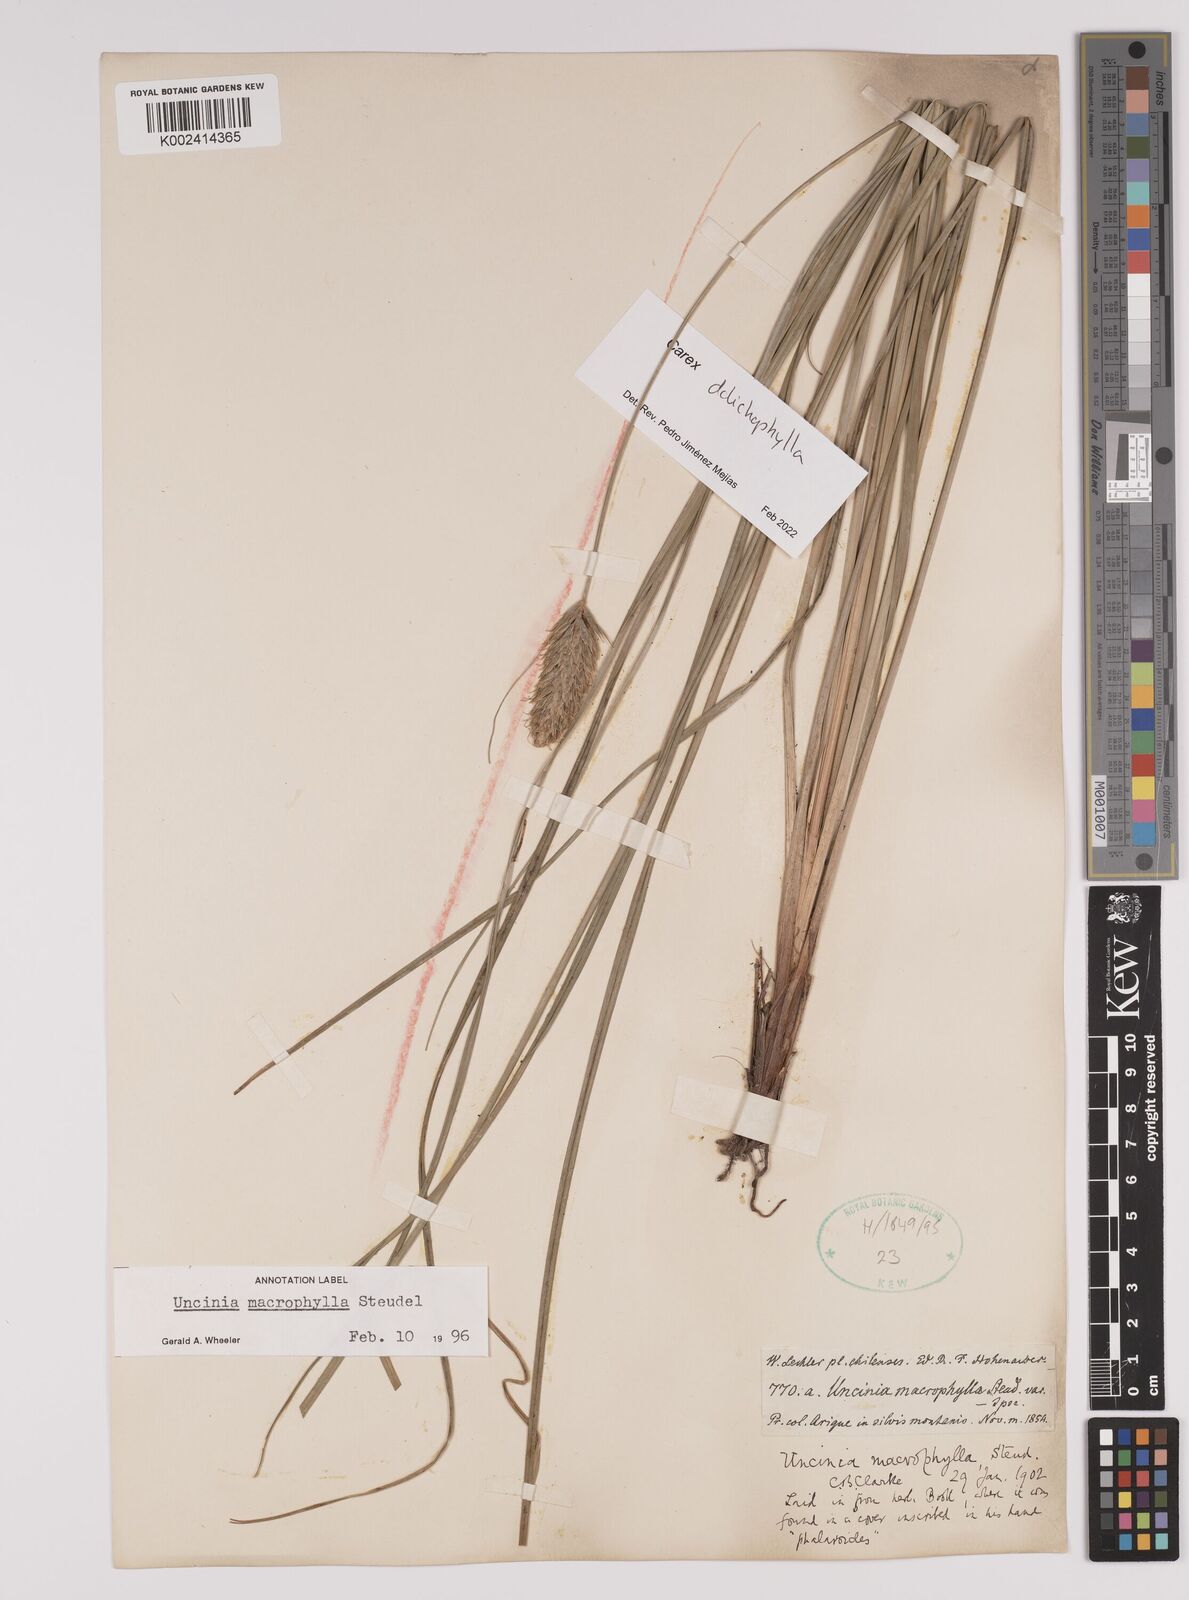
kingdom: Plantae
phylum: Tracheophyta
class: Liliopsida
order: Poales
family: Cyperaceae
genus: Carex
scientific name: Carex dolichophylla
